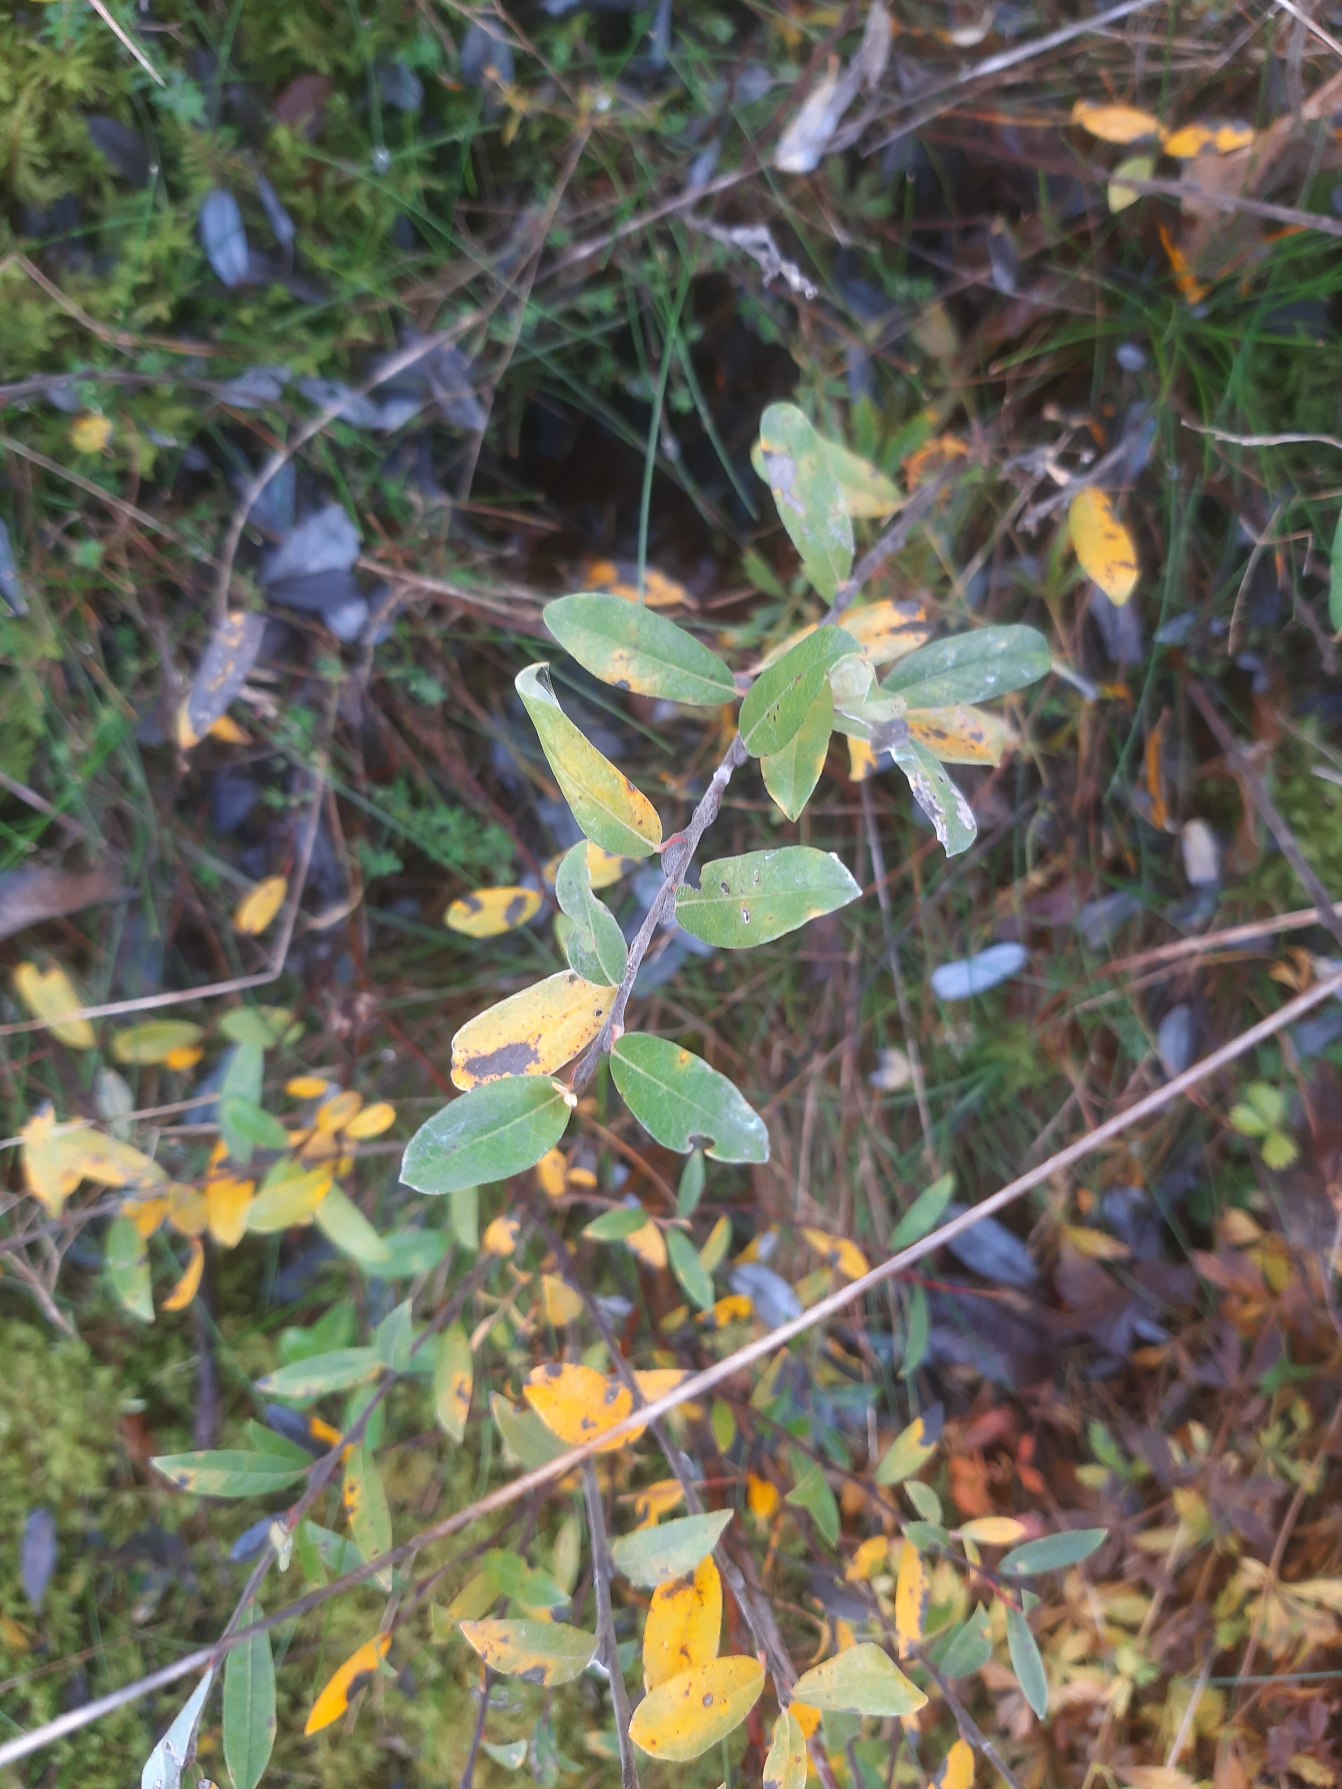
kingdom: Plantae
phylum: Tracheophyta
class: Magnoliopsida
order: Malpighiales
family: Salicaceae
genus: Salix
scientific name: Salix repens
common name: Krybende pil
